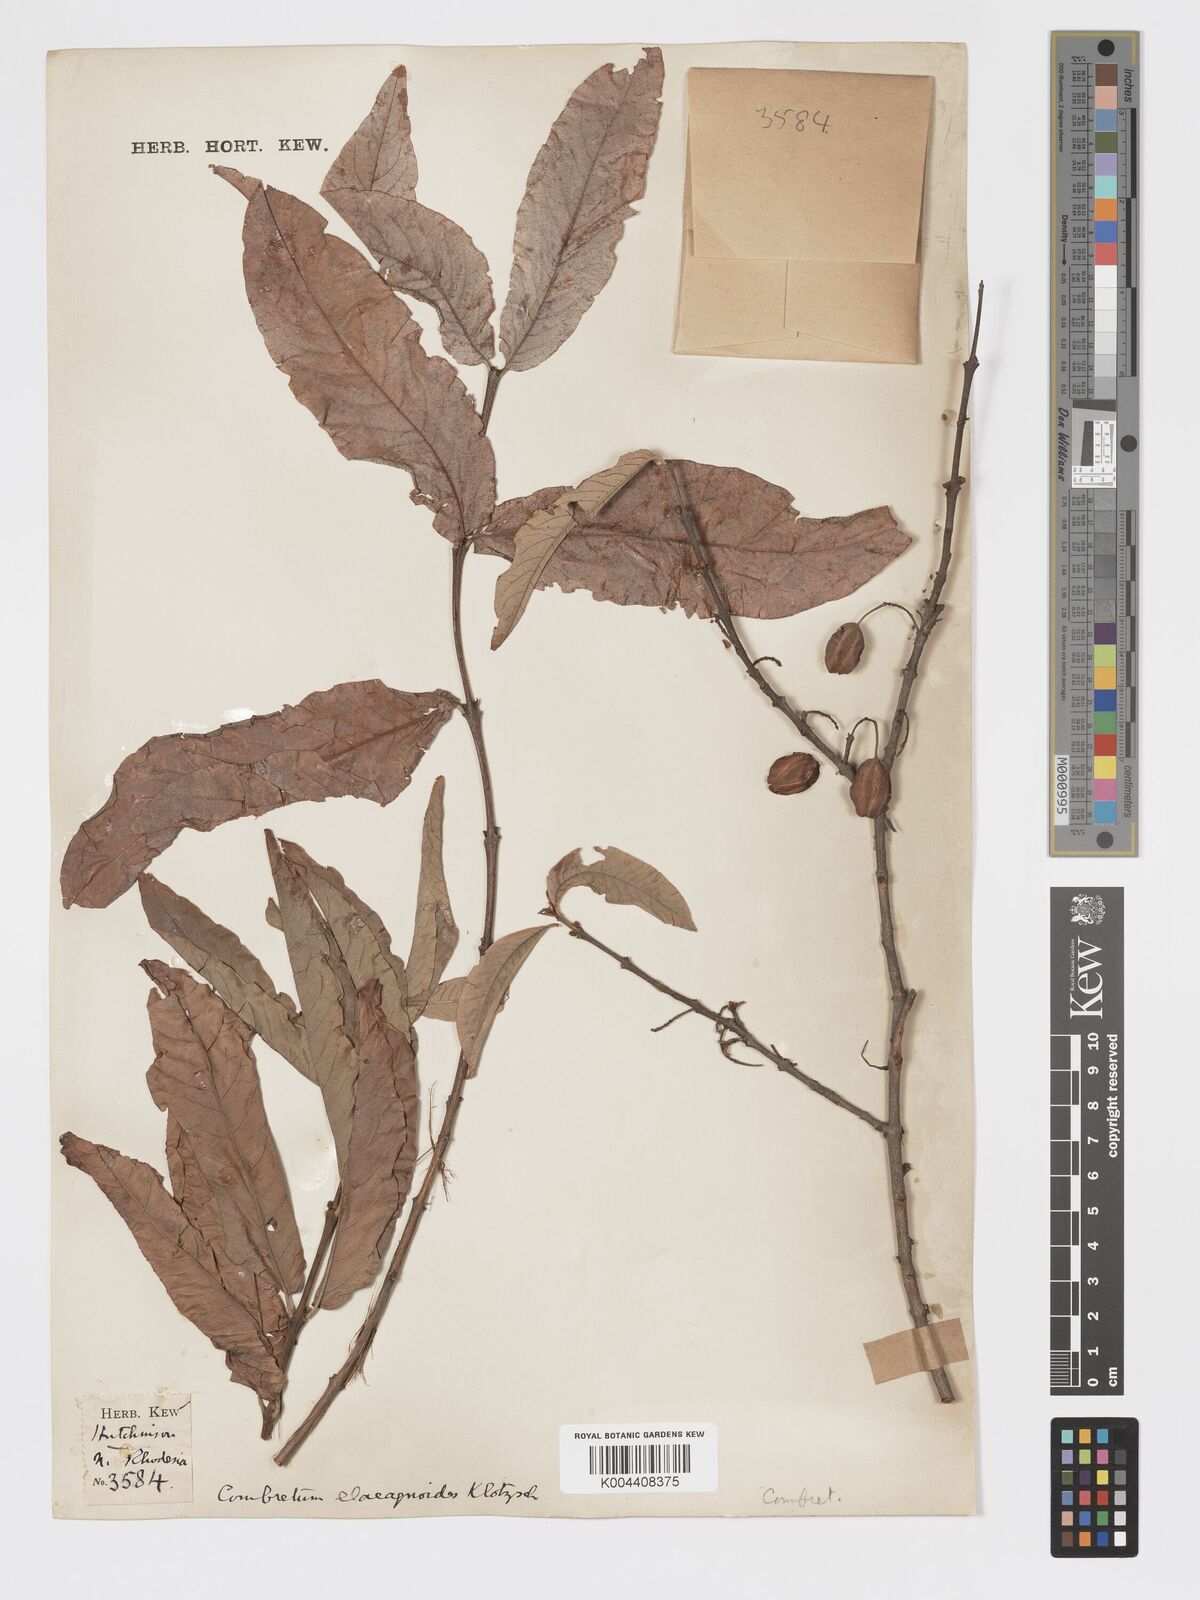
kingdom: Plantae
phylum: Tracheophyta
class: Magnoliopsida
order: Myrtales
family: Combretaceae
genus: Combretum
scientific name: Combretum elaeagnoides
